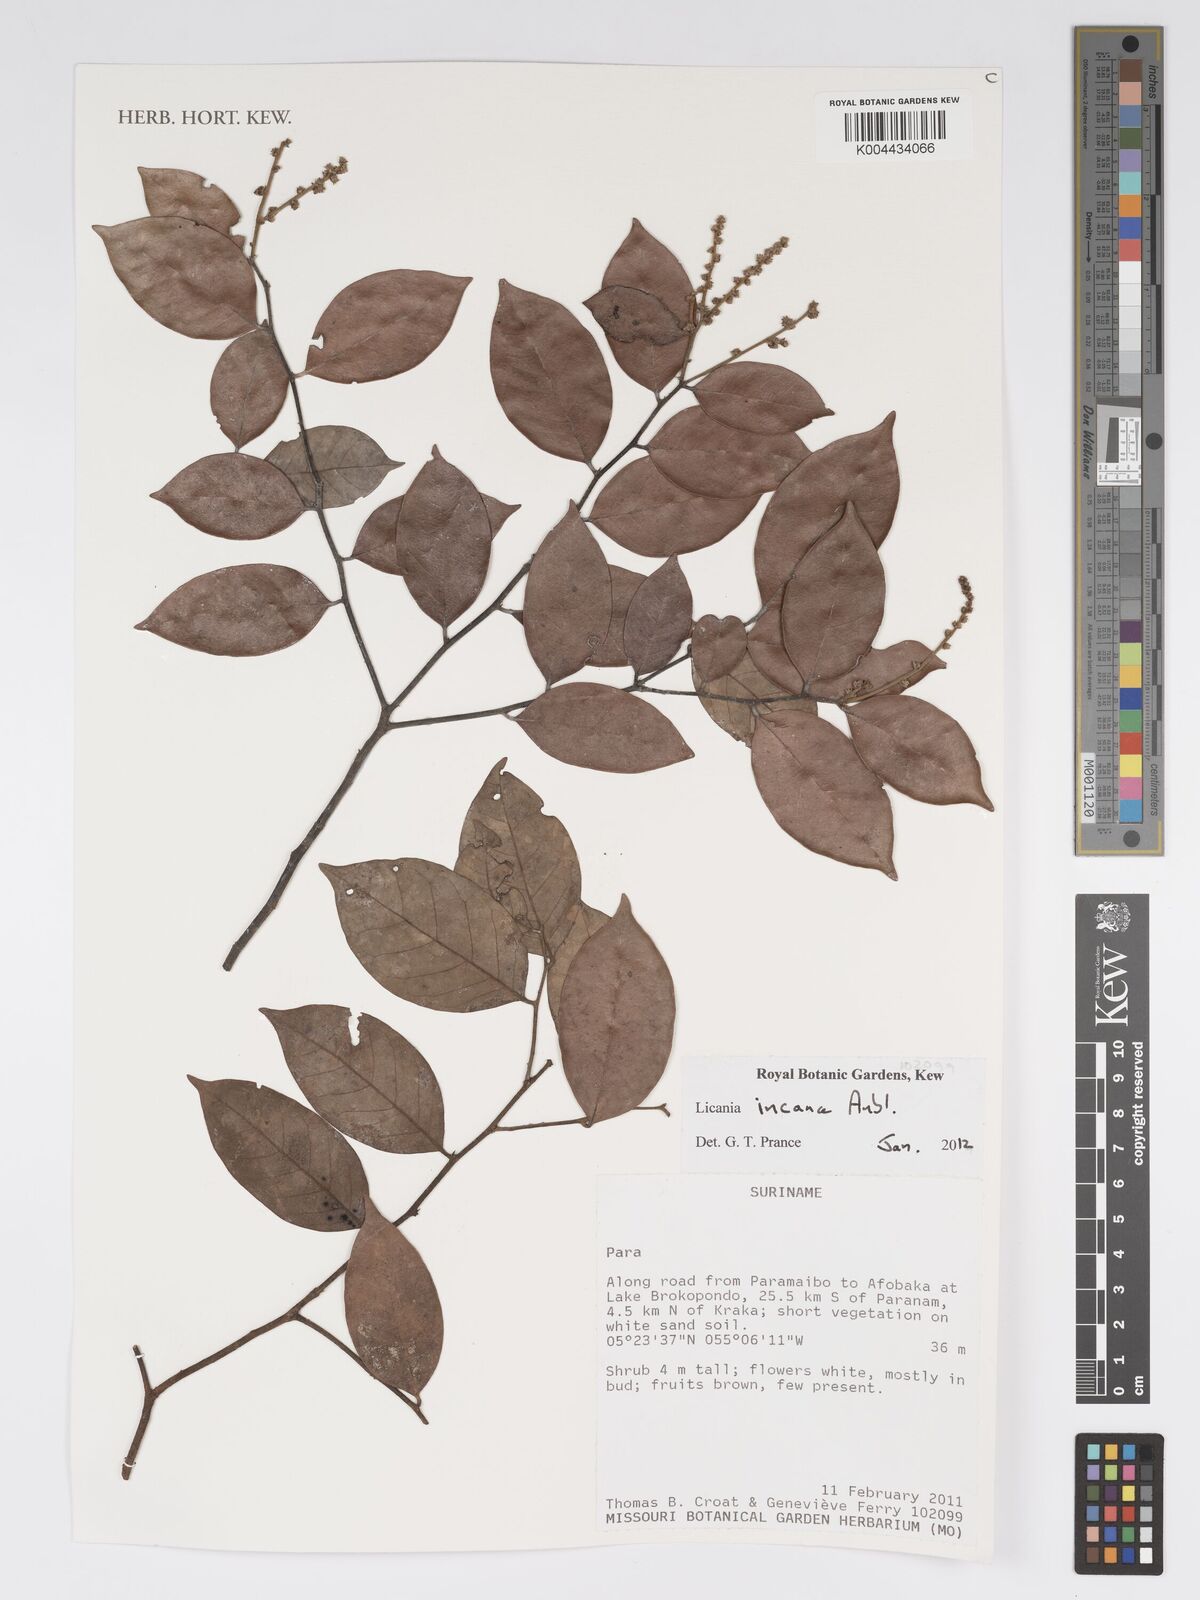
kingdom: Plantae
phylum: Tracheophyta
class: Magnoliopsida
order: Malpighiales
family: Chrysobalanaceae
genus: Licania
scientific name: Licania incana
